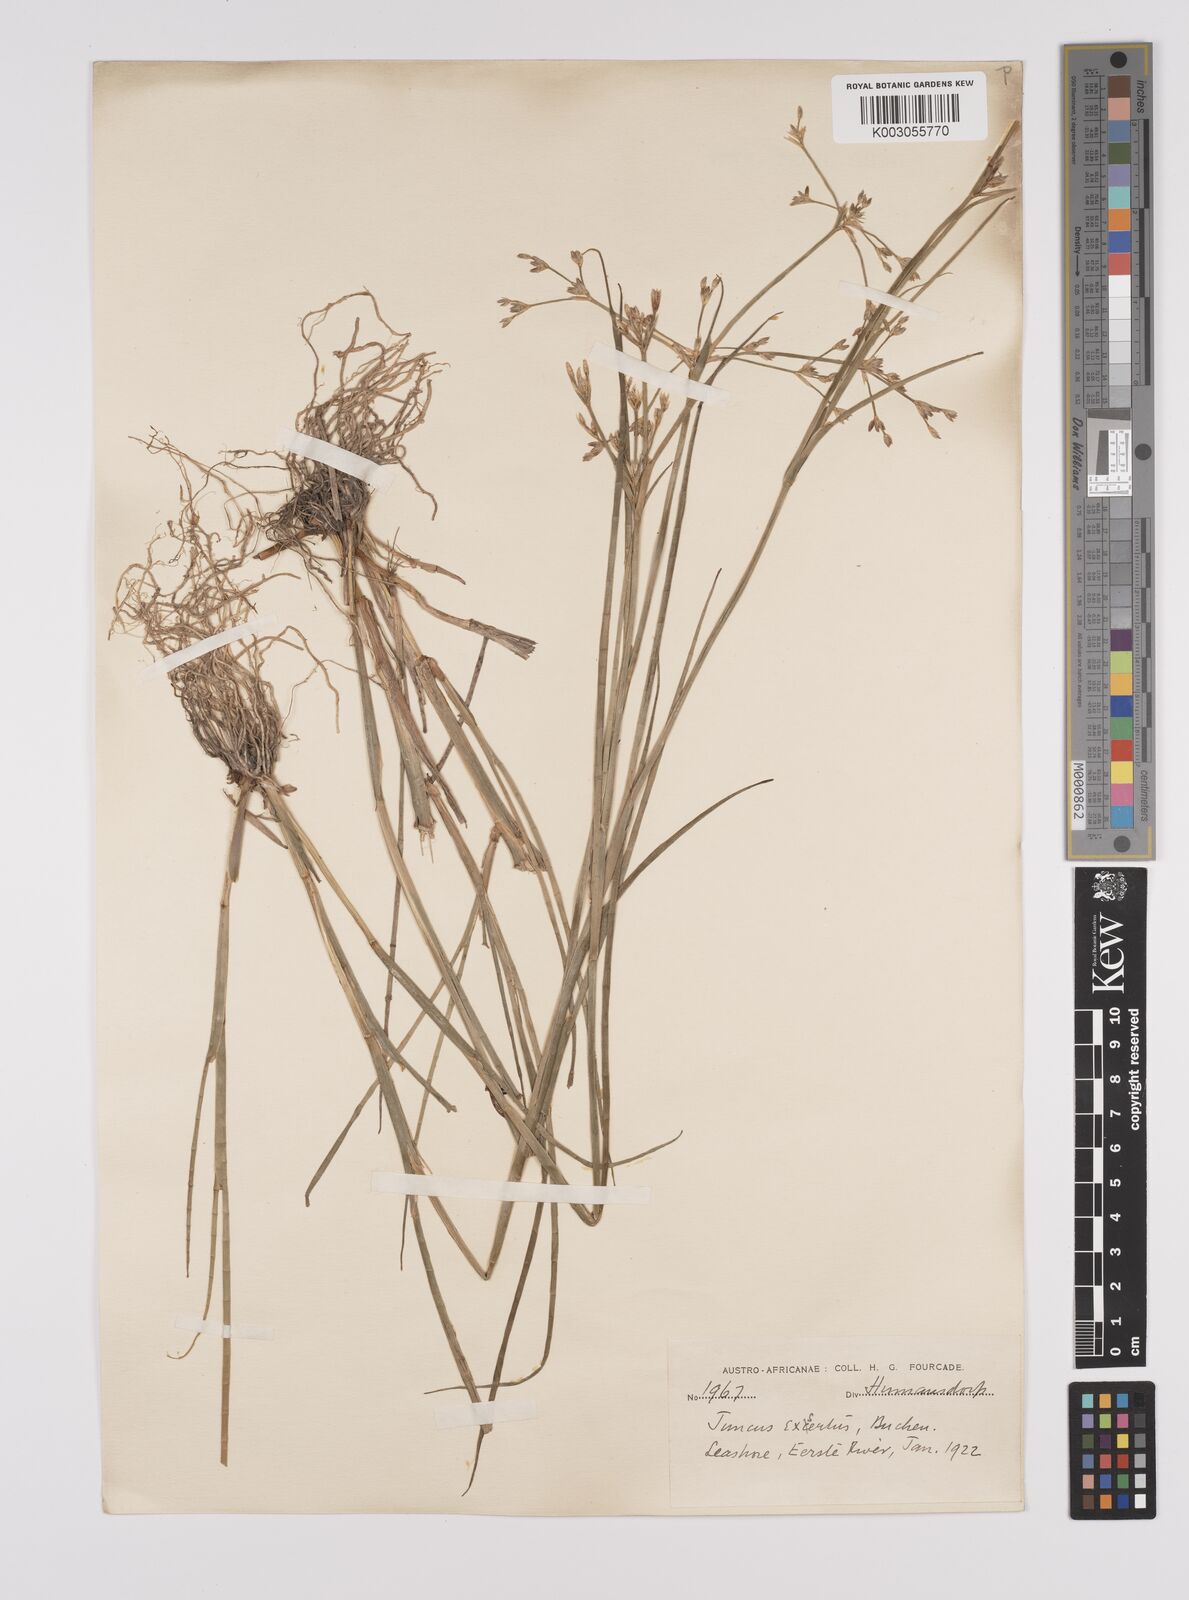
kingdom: Plantae
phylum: Tracheophyta
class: Liliopsida
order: Poales
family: Juncaceae
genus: Juncus
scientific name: Juncus exsertus
